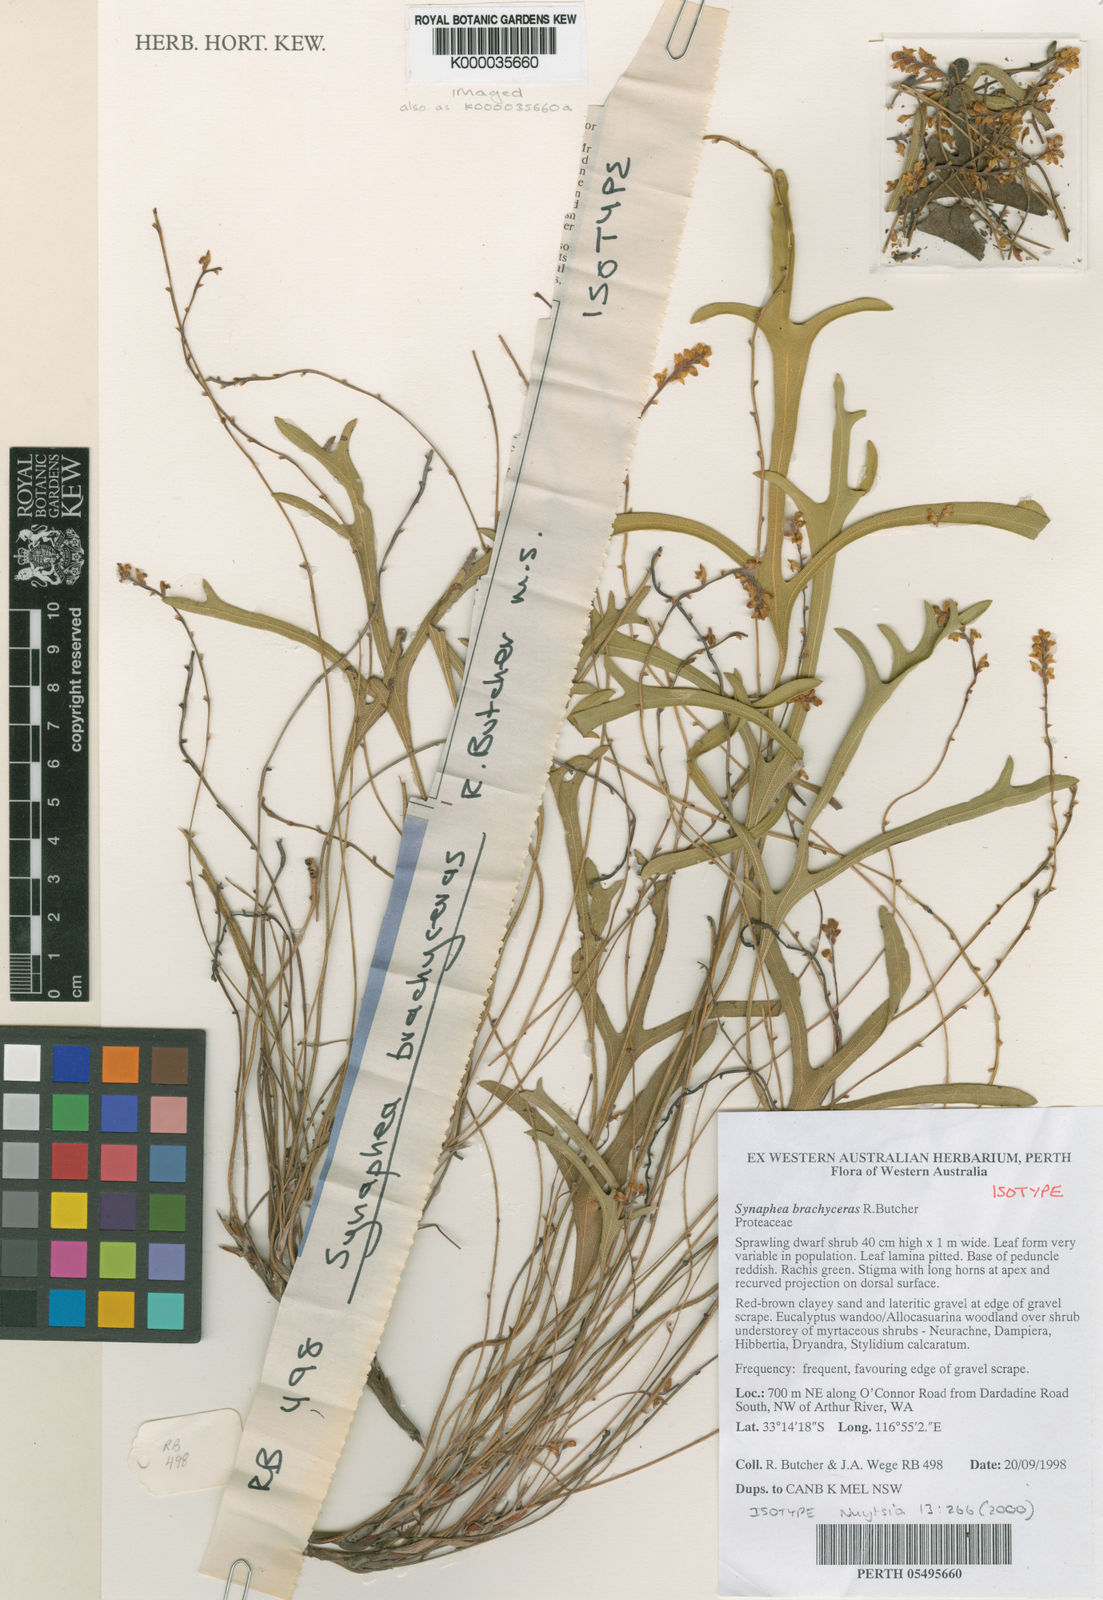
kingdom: Plantae
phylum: Tracheophyta
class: Magnoliopsida
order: Proteales
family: Proteaceae
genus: Synaphea
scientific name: Synaphea brachyceras
